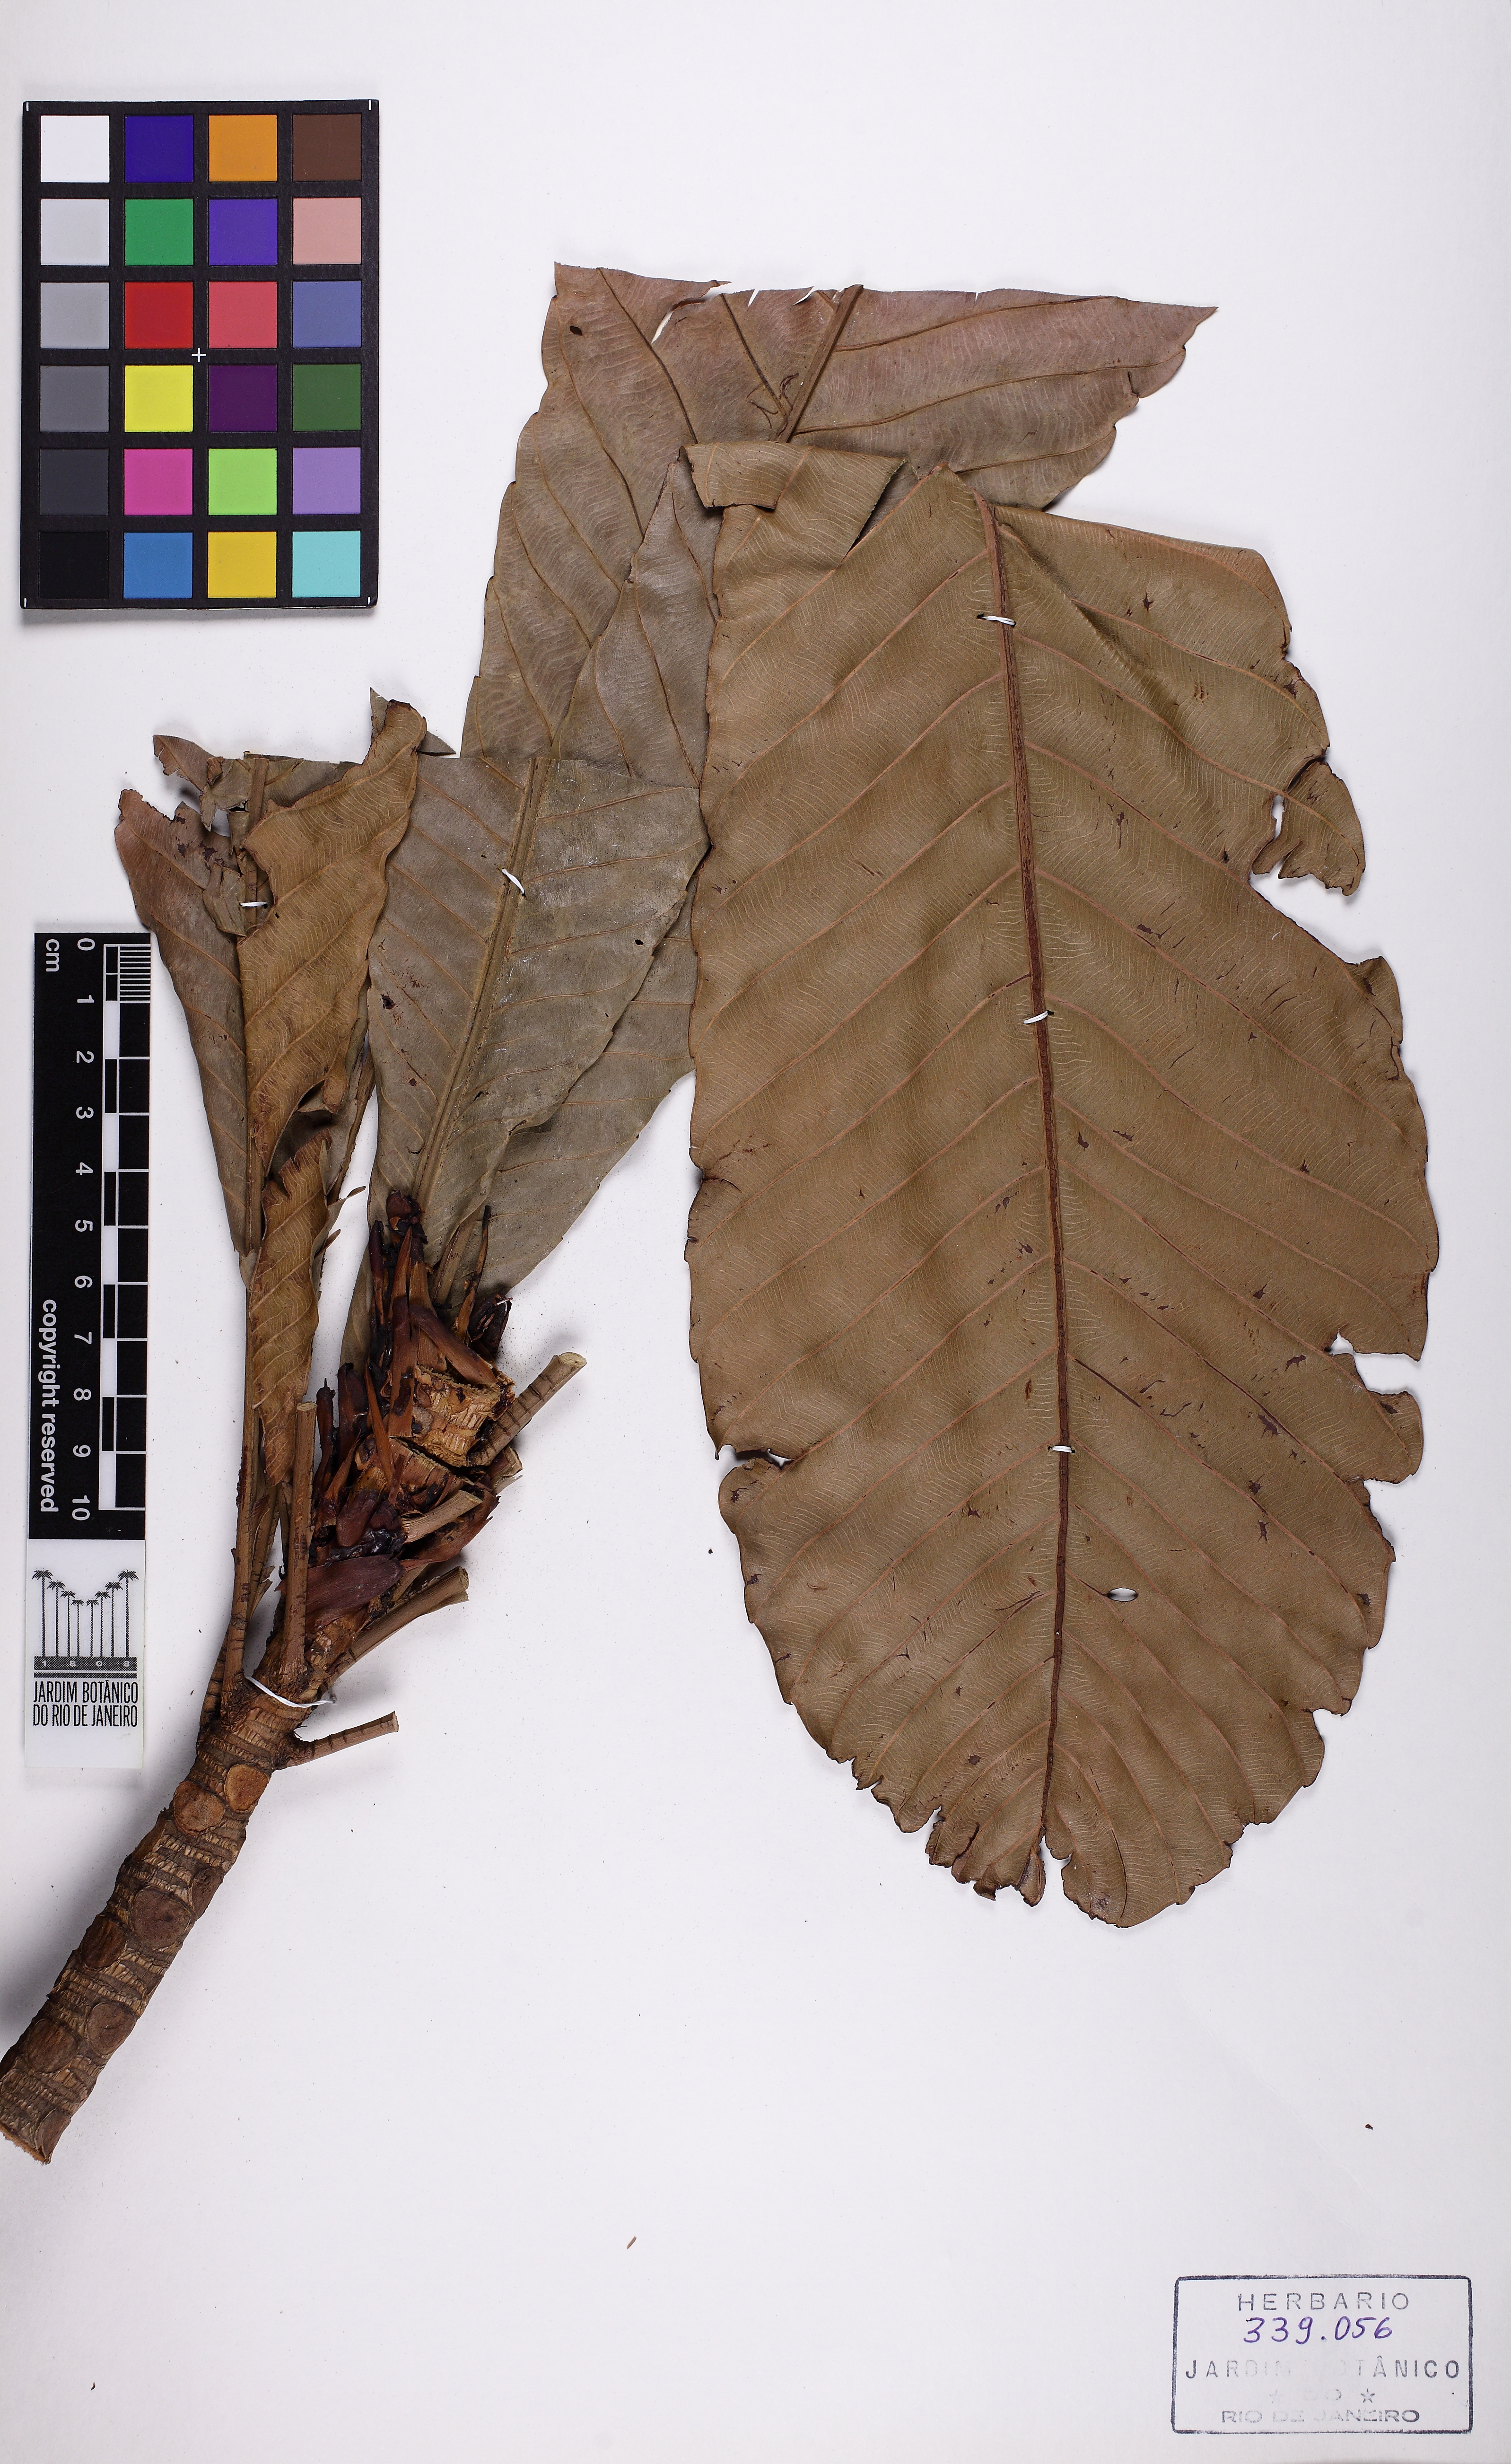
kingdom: Plantae
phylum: Tracheophyta
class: Magnoliopsida
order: Malpighiales
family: Ochnaceae
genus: Cespedesia
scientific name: Cespedesia spathulata
